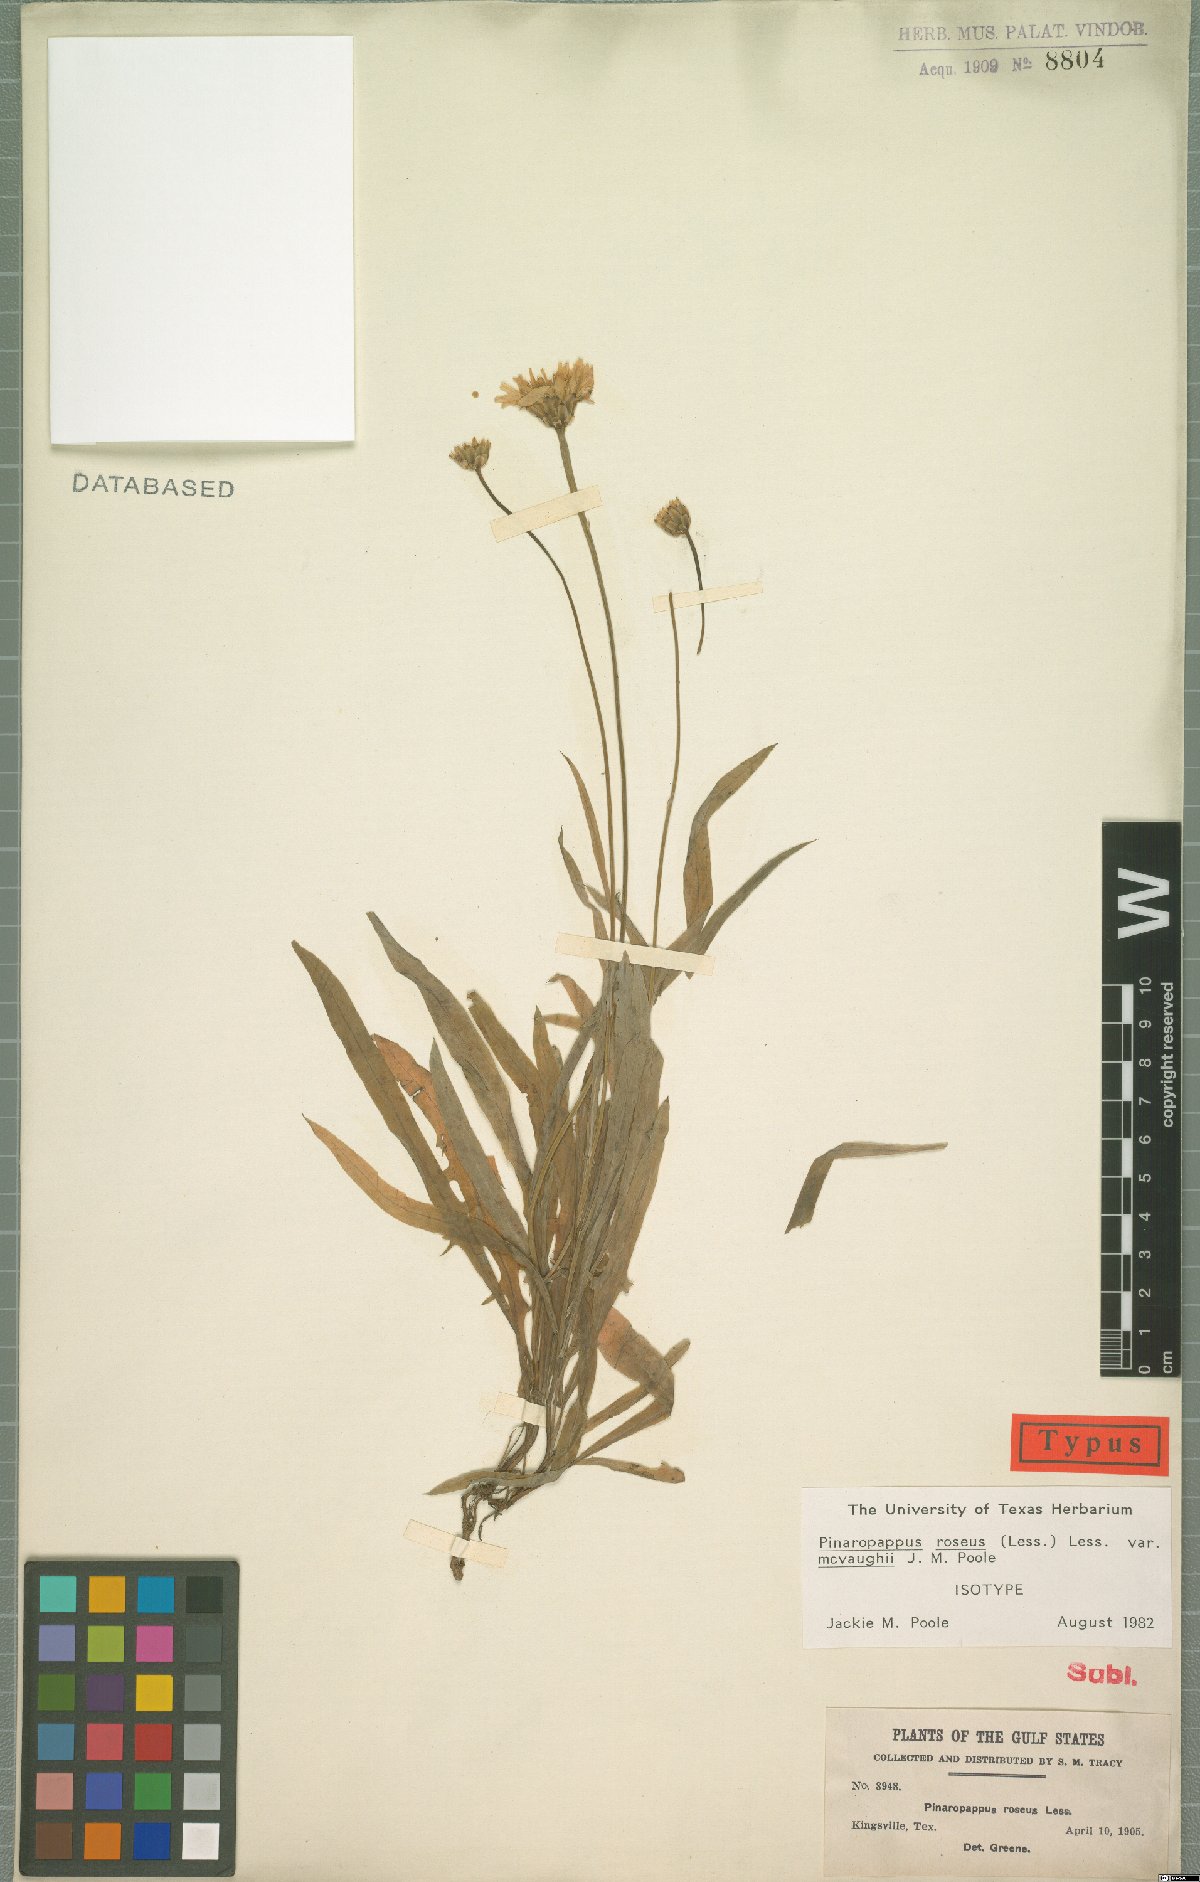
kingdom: Plantae
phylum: Tracheophyta
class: Magnoliopsida
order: Asterales
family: Asteraceae
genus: Pinaropappus
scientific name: Pinaropappus roseus
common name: Rock-lettuce
